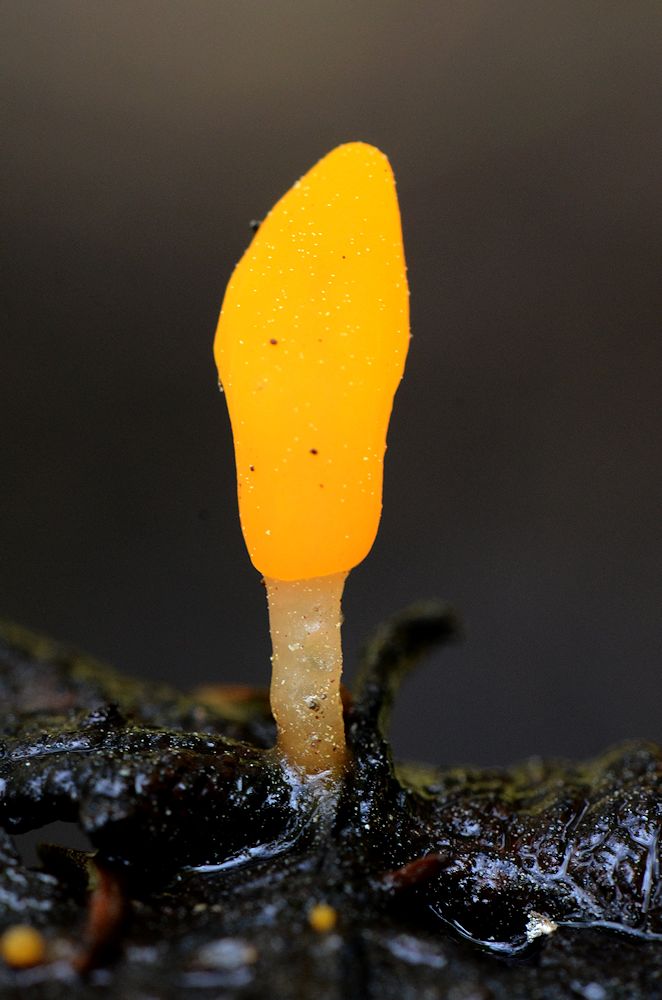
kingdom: Fungi
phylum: Ascomycota
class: Leotiomycetes
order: Helotiales
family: Cenangiaceae
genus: Mitrula
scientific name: Mitrula paludosa
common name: gul nøkketunge
